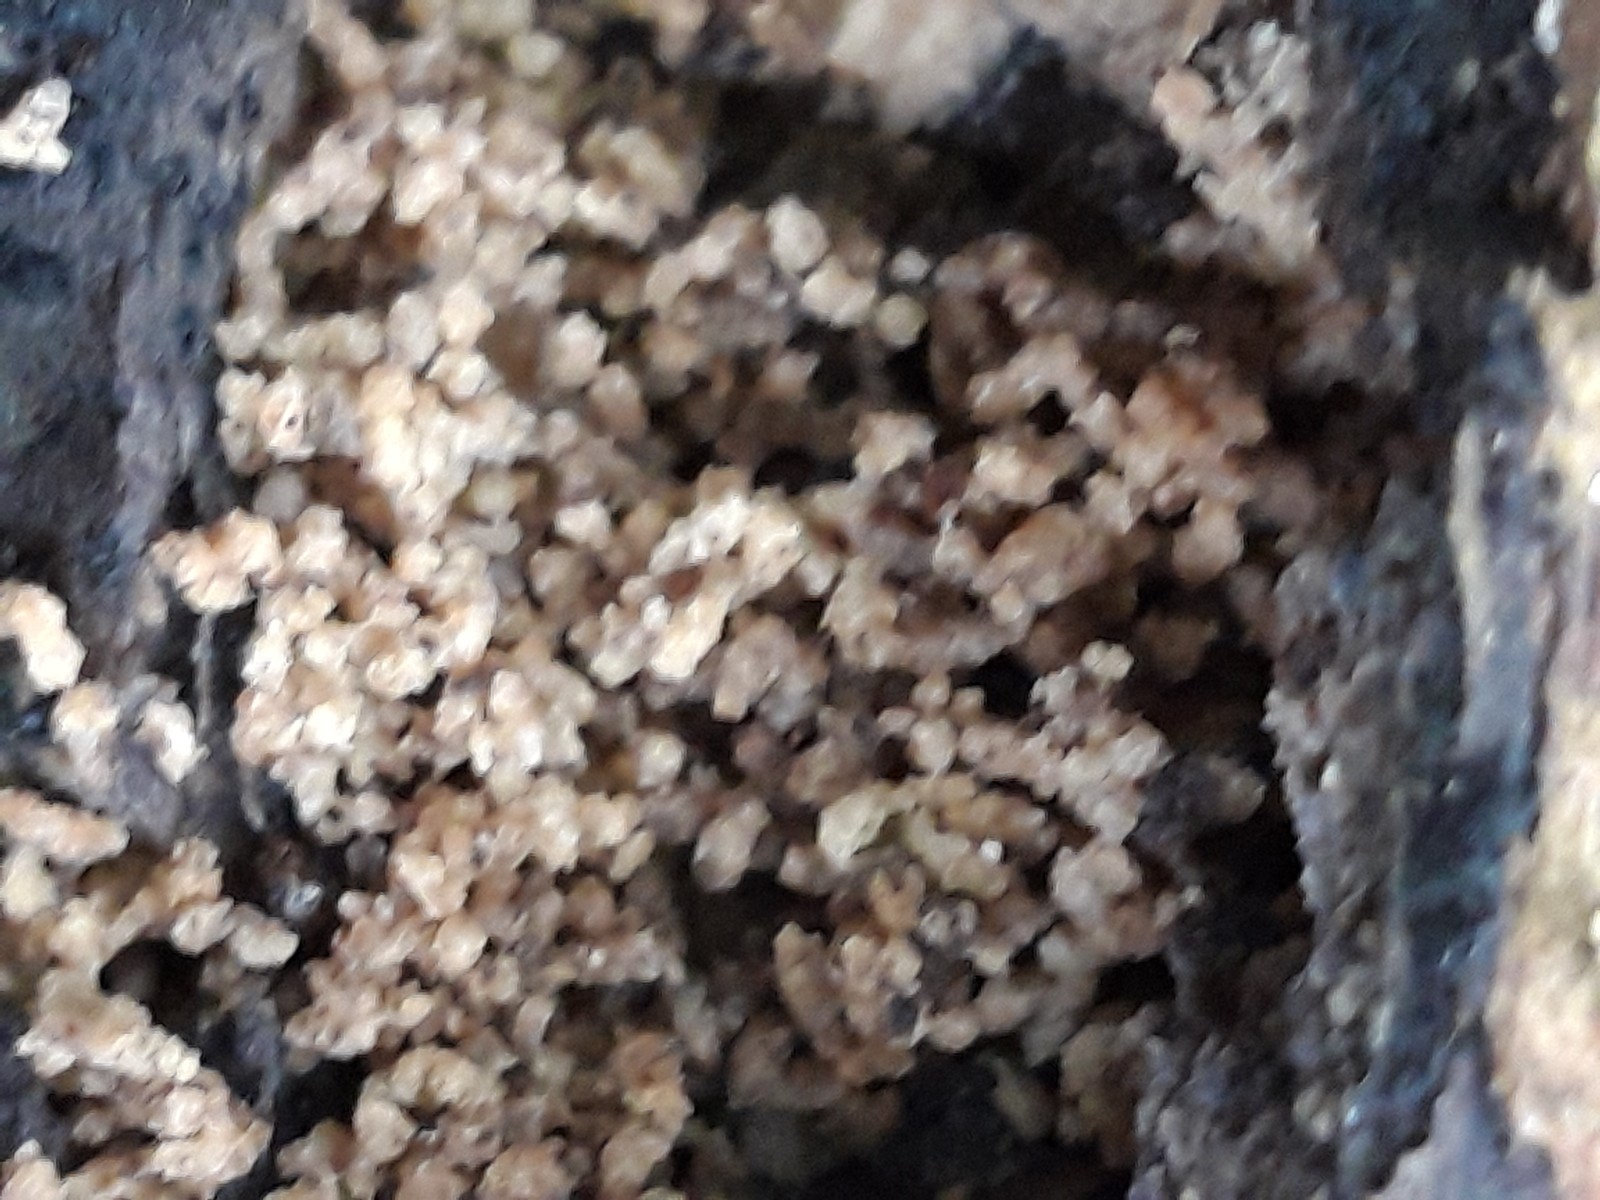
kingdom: Protozoa
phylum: Mycetozoa
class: Myxomycetes
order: Trichiales
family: Trichiaceae
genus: Trichia
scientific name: Trichia
